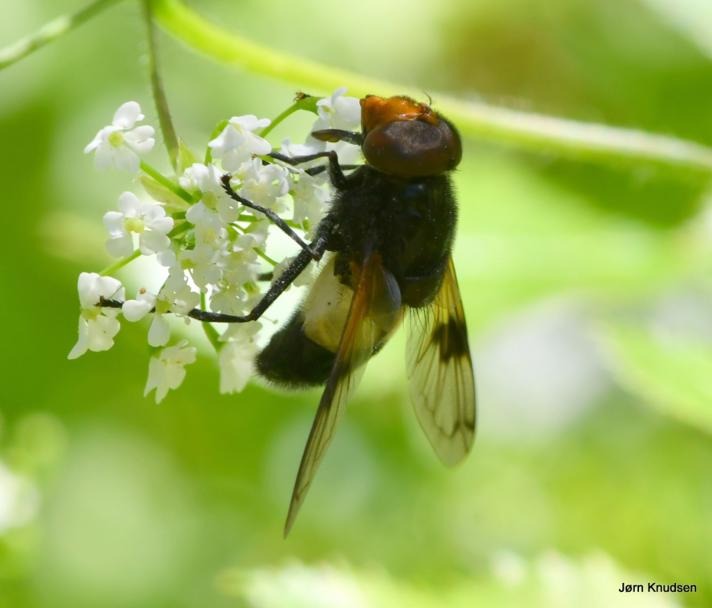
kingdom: Animalia
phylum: Arthropoda
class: Insecta
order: Diptera
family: Syrphidae
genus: Volucella
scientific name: Volucella pellucens
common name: Hvidbåndet humlesvirreflue
